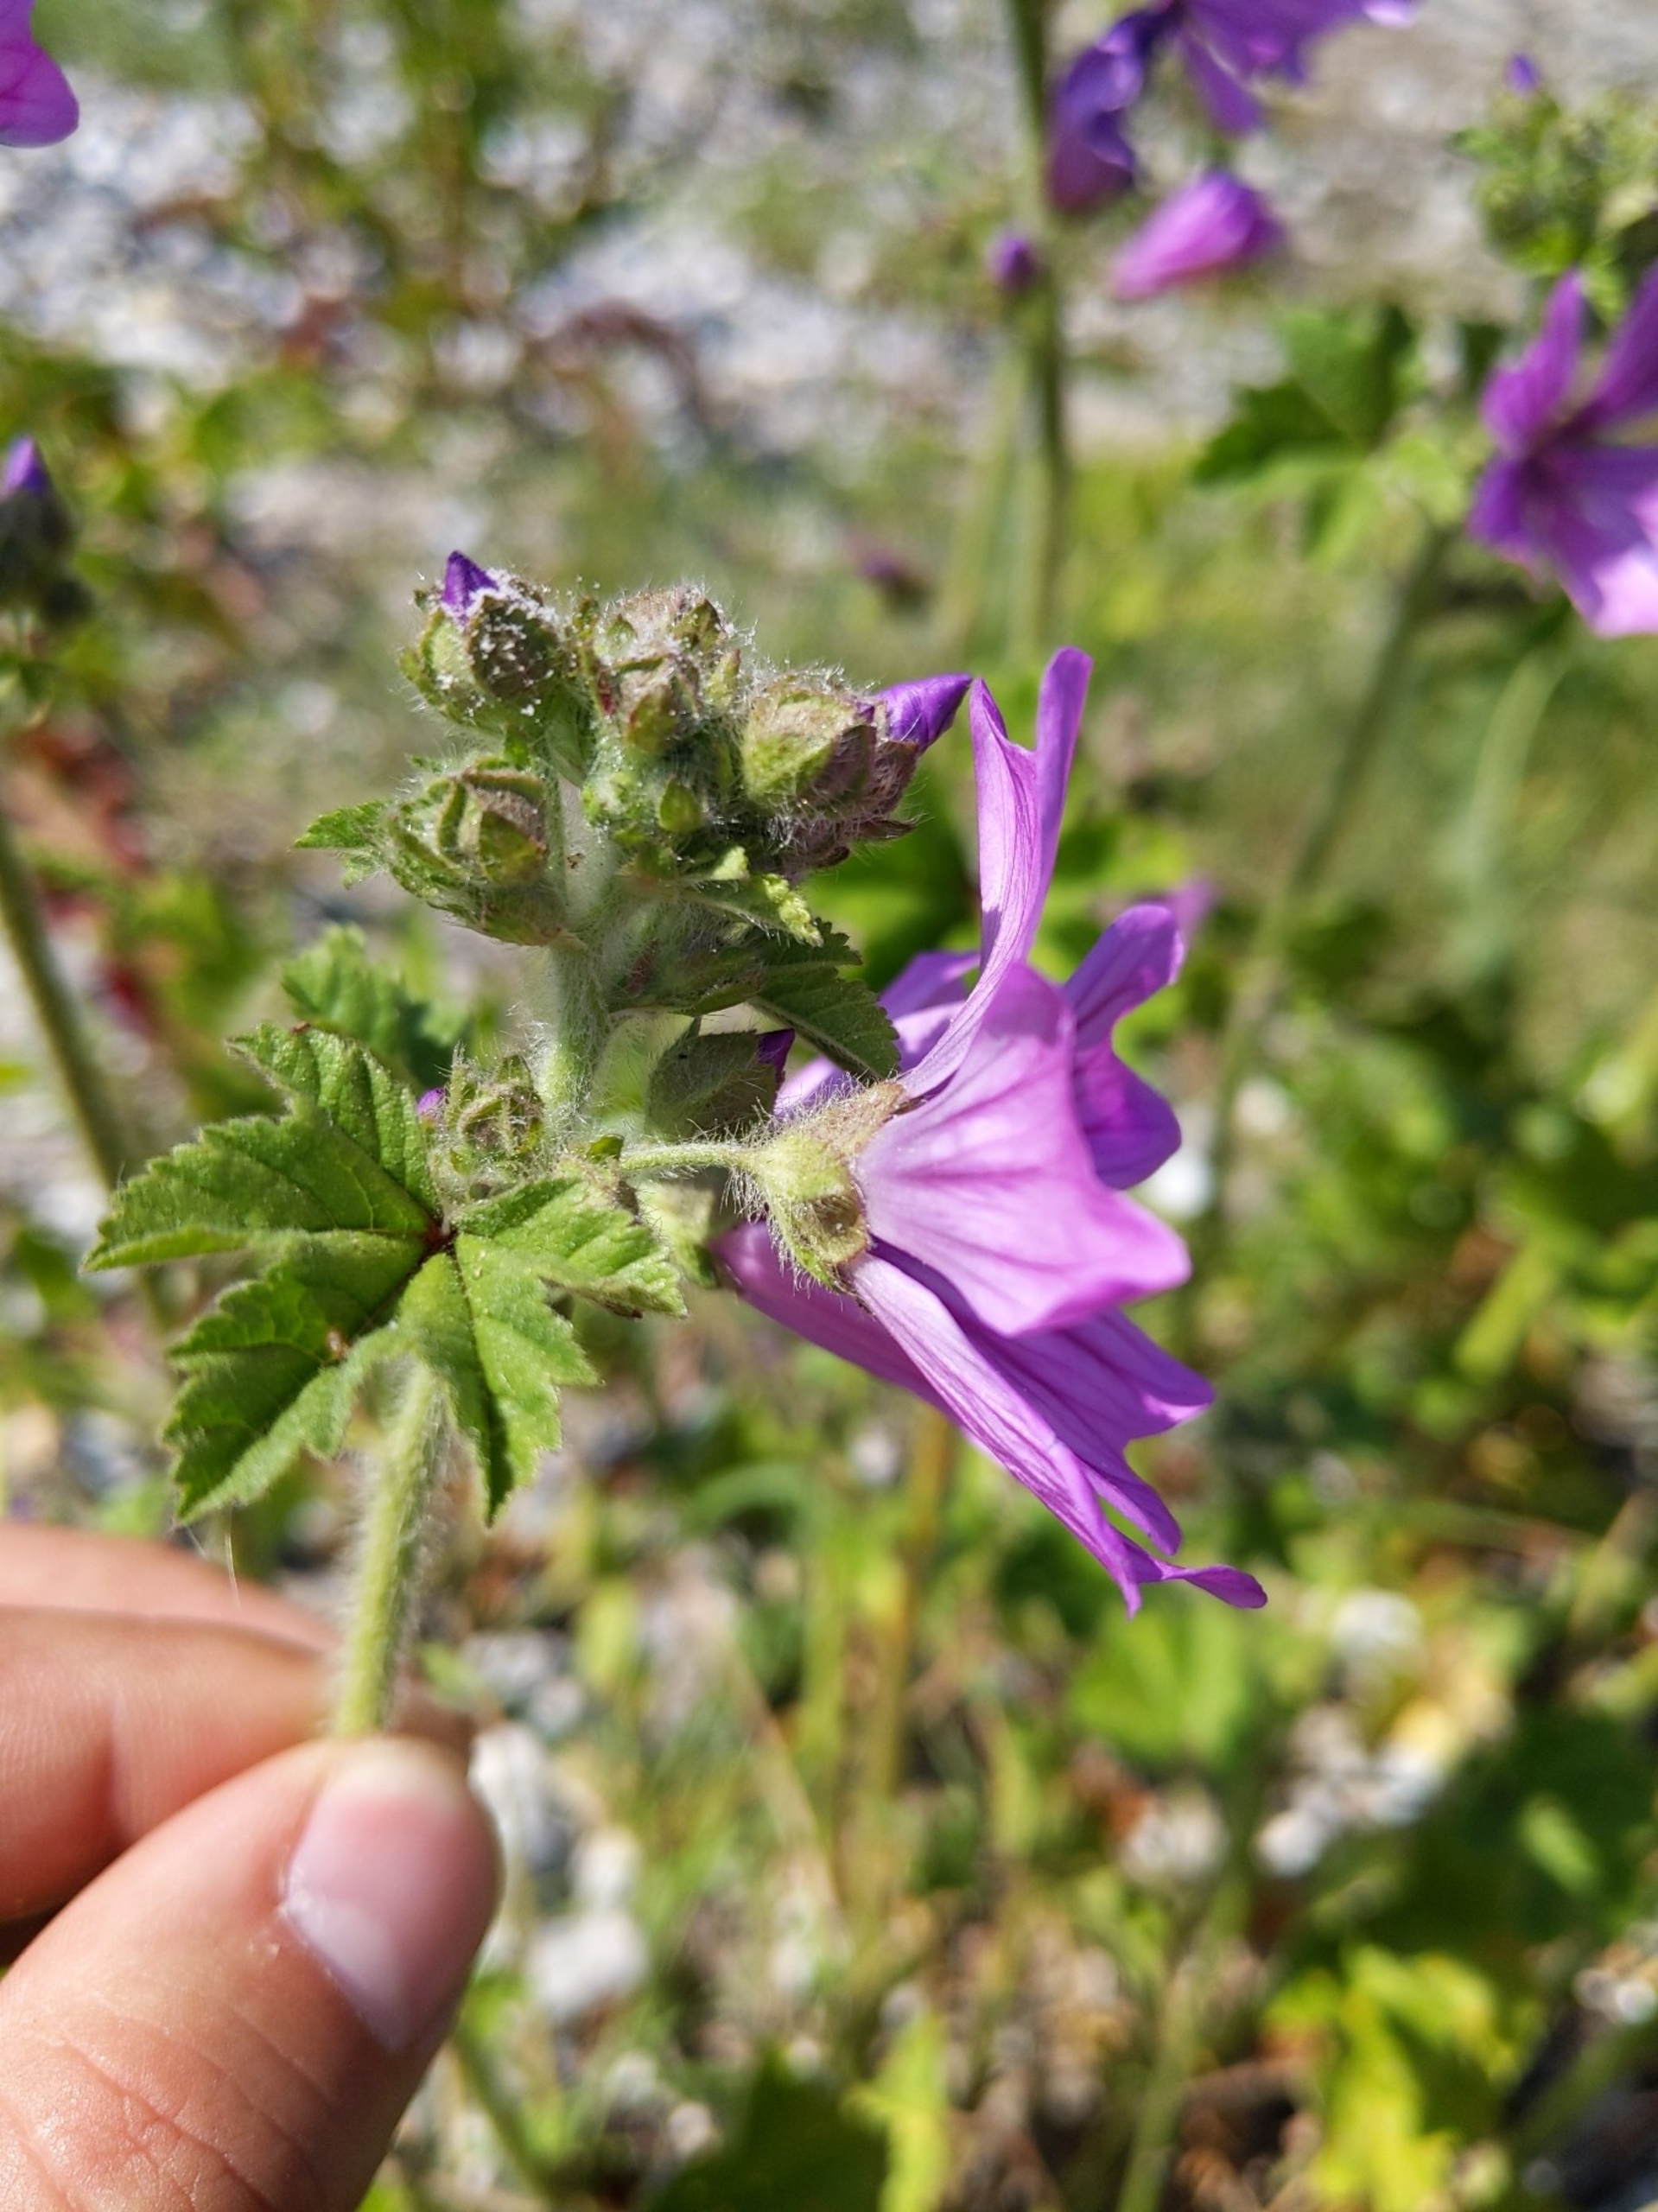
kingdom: Plantae
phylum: Tracheophyta
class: Magnoliopsida
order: Malvales
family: Malvaceae
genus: Malva
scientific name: Malva sylvestris
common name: Almindelig katost
